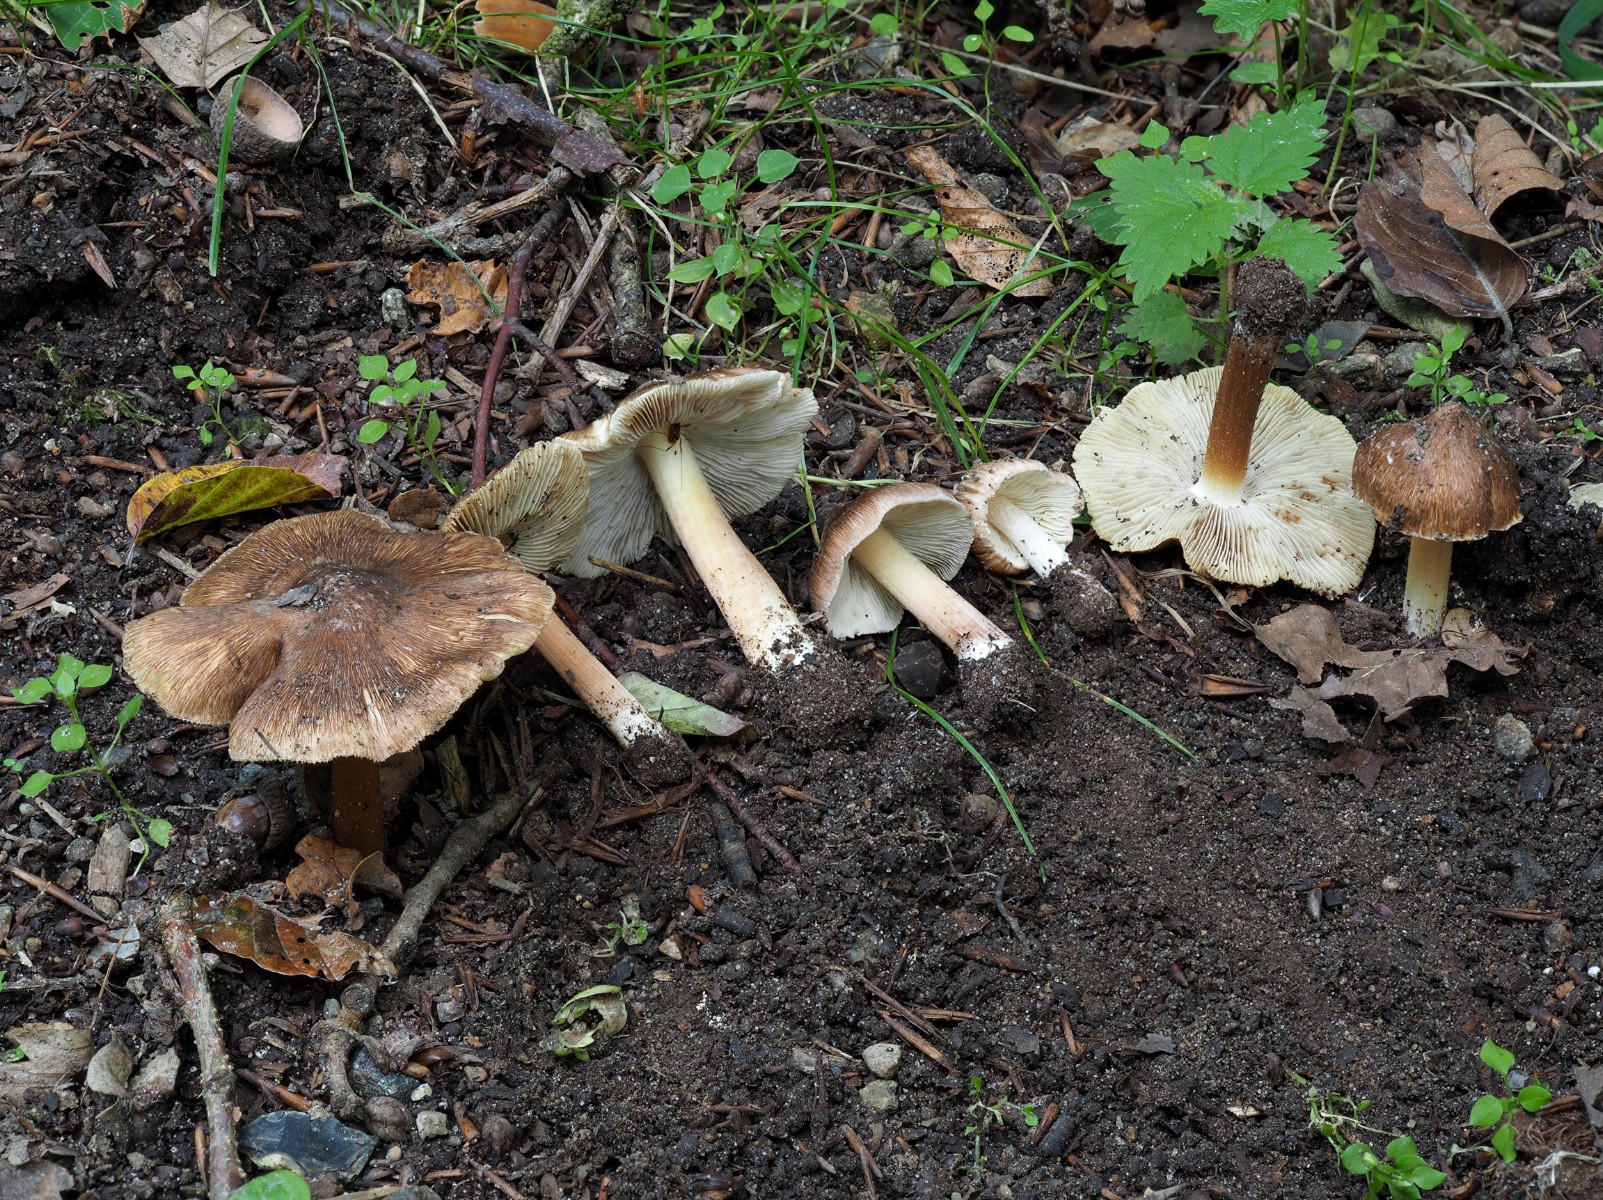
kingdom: Fungi
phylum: Basidiomycota
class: Agaricomycetes
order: Agaricales
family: Inocybaceae
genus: Inosperma
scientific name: Inosperma maculatum
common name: plettet trævlhat
